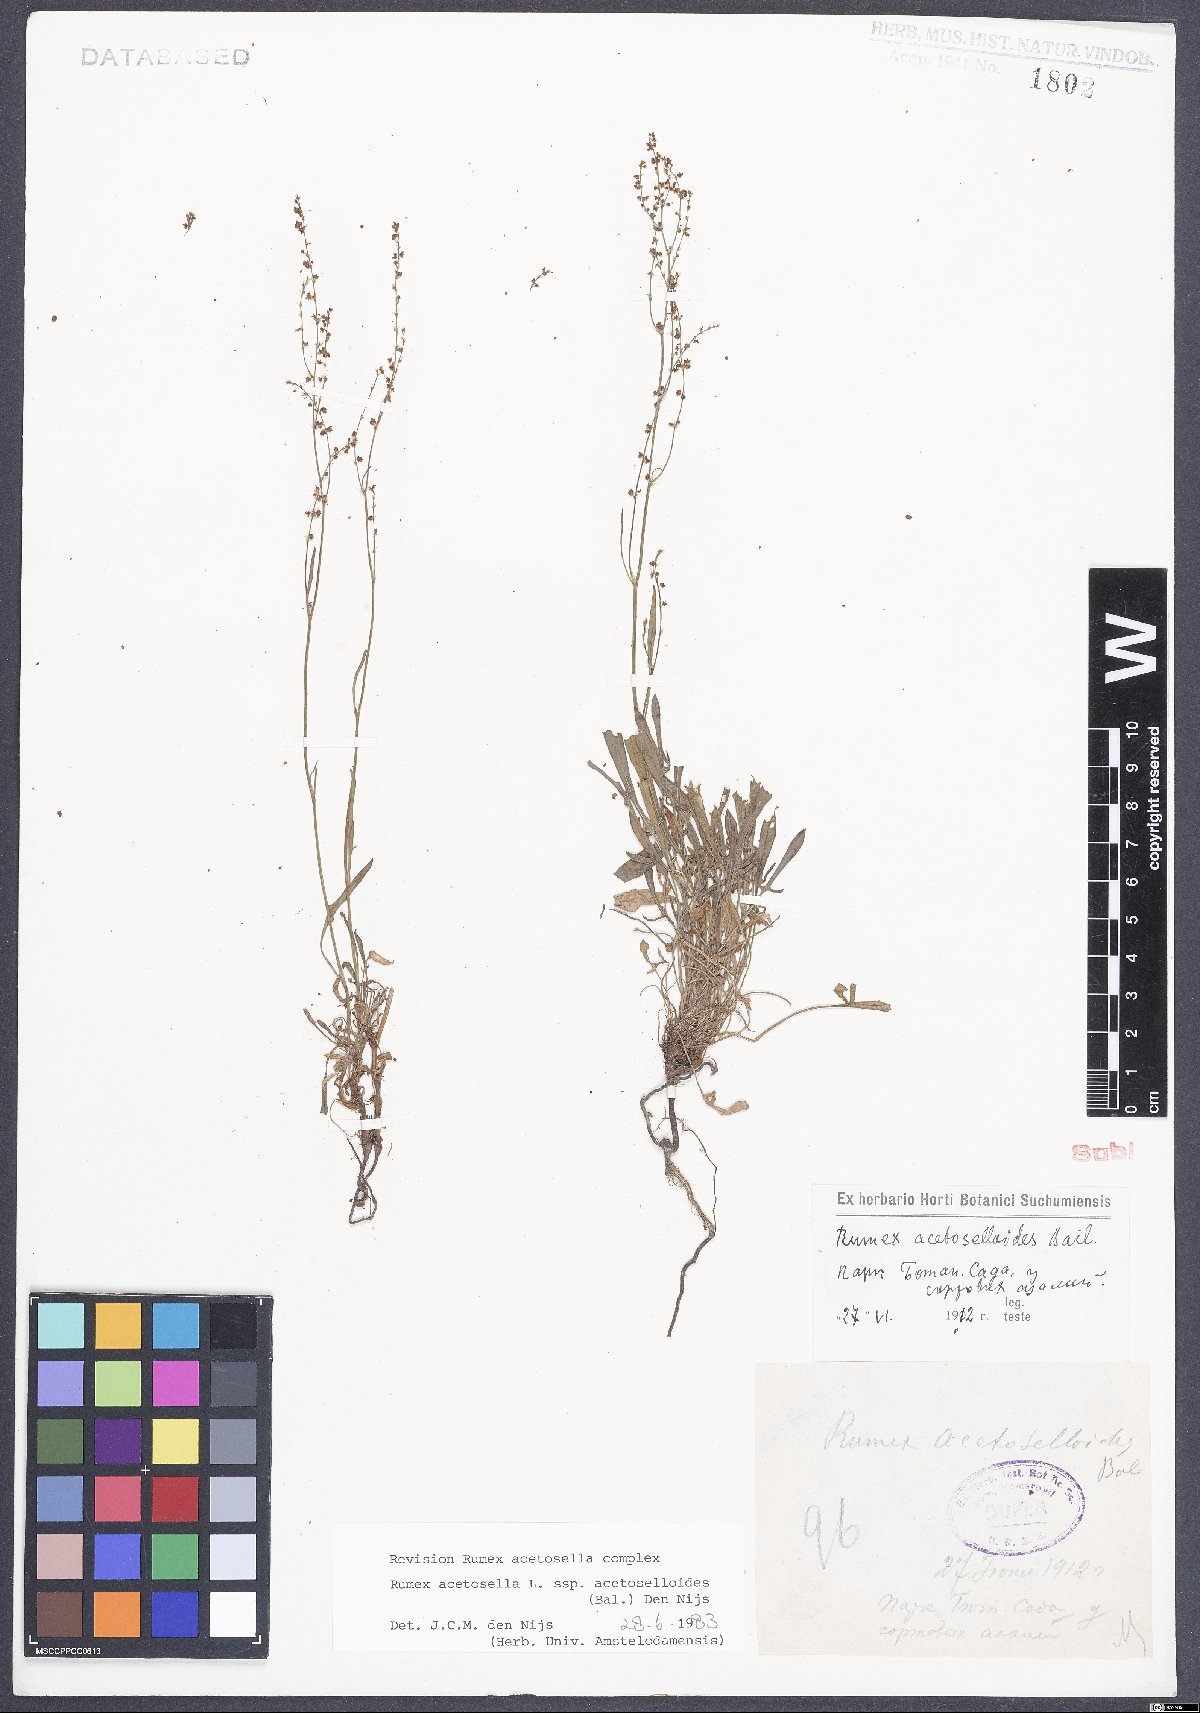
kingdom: Plantae
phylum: Tracheophyta
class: Magnoliopsida
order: Caryophyllales
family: Polygonaceae
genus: Rumex
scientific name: Rumex acetosella
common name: Common sheep sorrel
